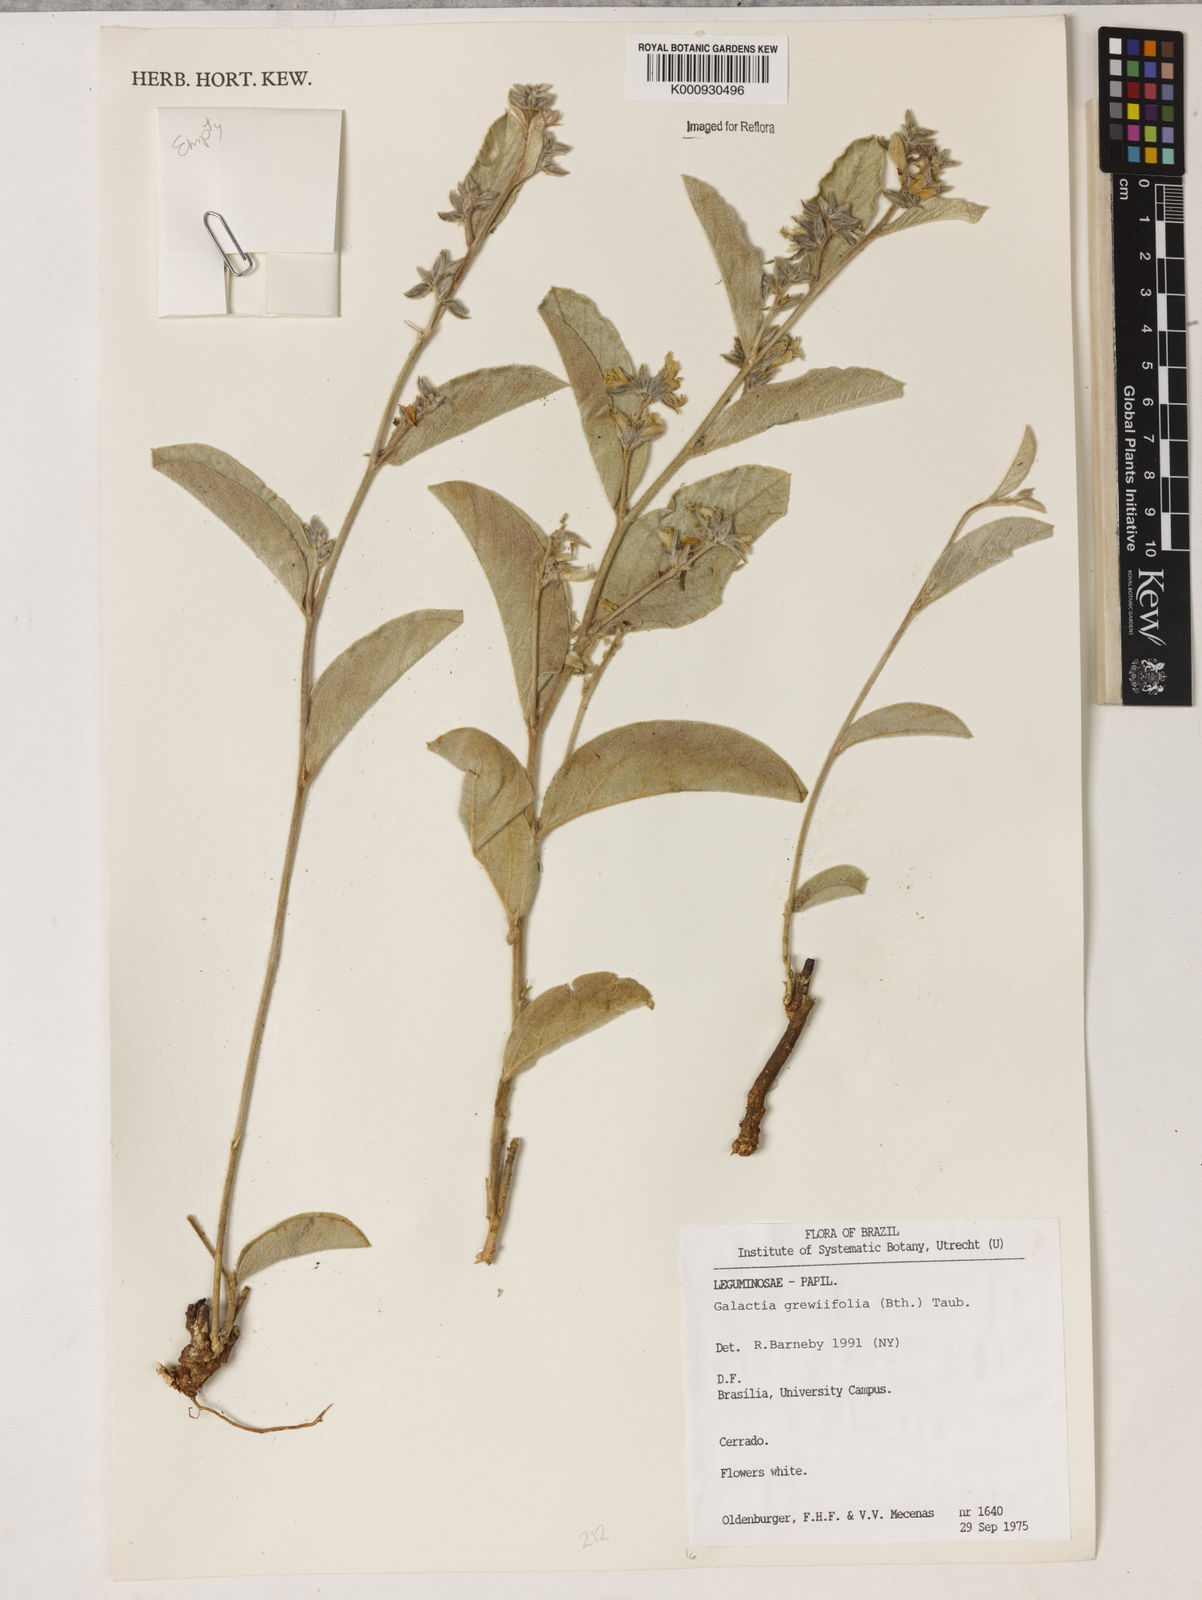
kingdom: Plantae
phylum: Tracheophyta
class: Magnoliopsida
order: Fabales
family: Fabaceae
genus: Galactia
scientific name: Galactia
